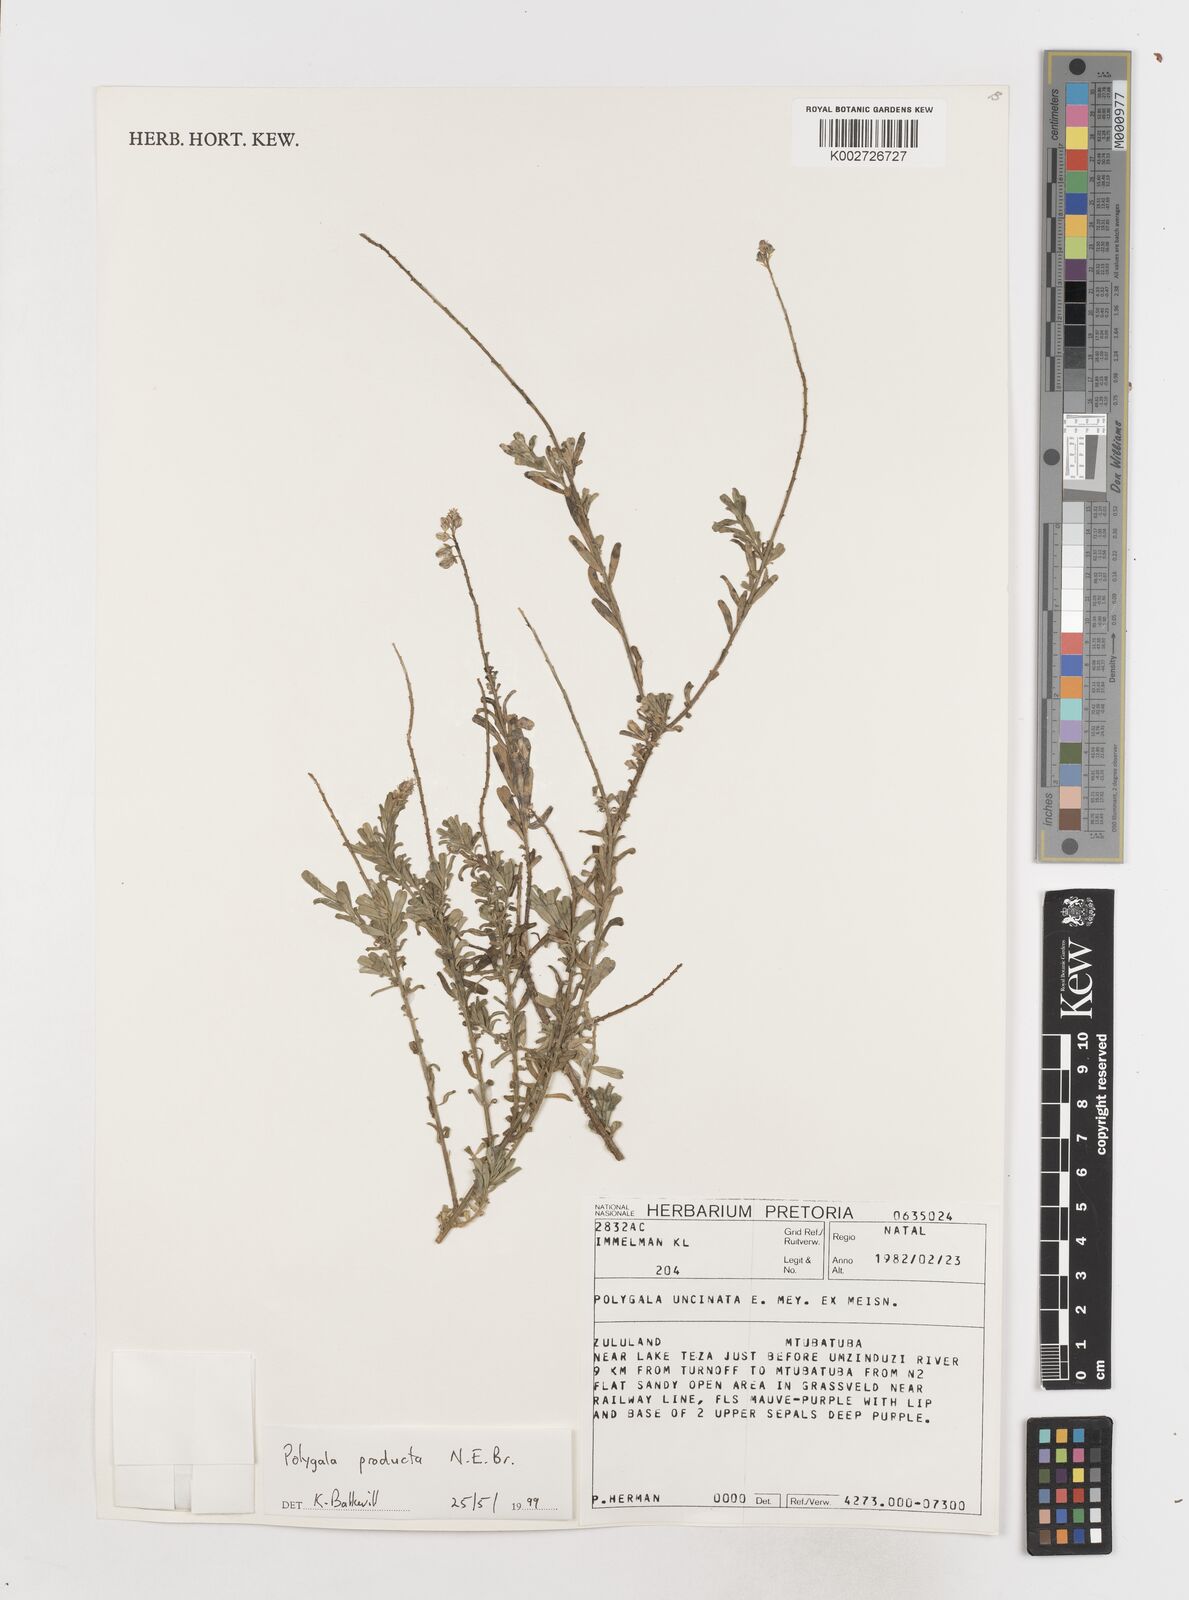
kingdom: Plantae
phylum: Tracheophyta
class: Magnoliopsida
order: Fabales
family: Polygalaceae
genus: Polygala
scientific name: Polygala producta
